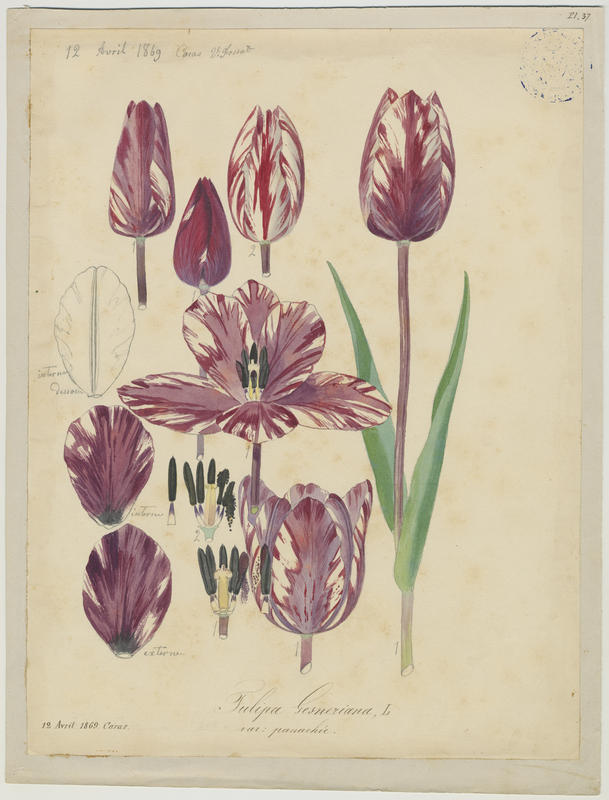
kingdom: Plantae
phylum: Tracheophyta
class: Liliopsida
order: Liliales
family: Liliaceae
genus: Tulipa
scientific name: Tulipa gesneriana
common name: Garden tulip
